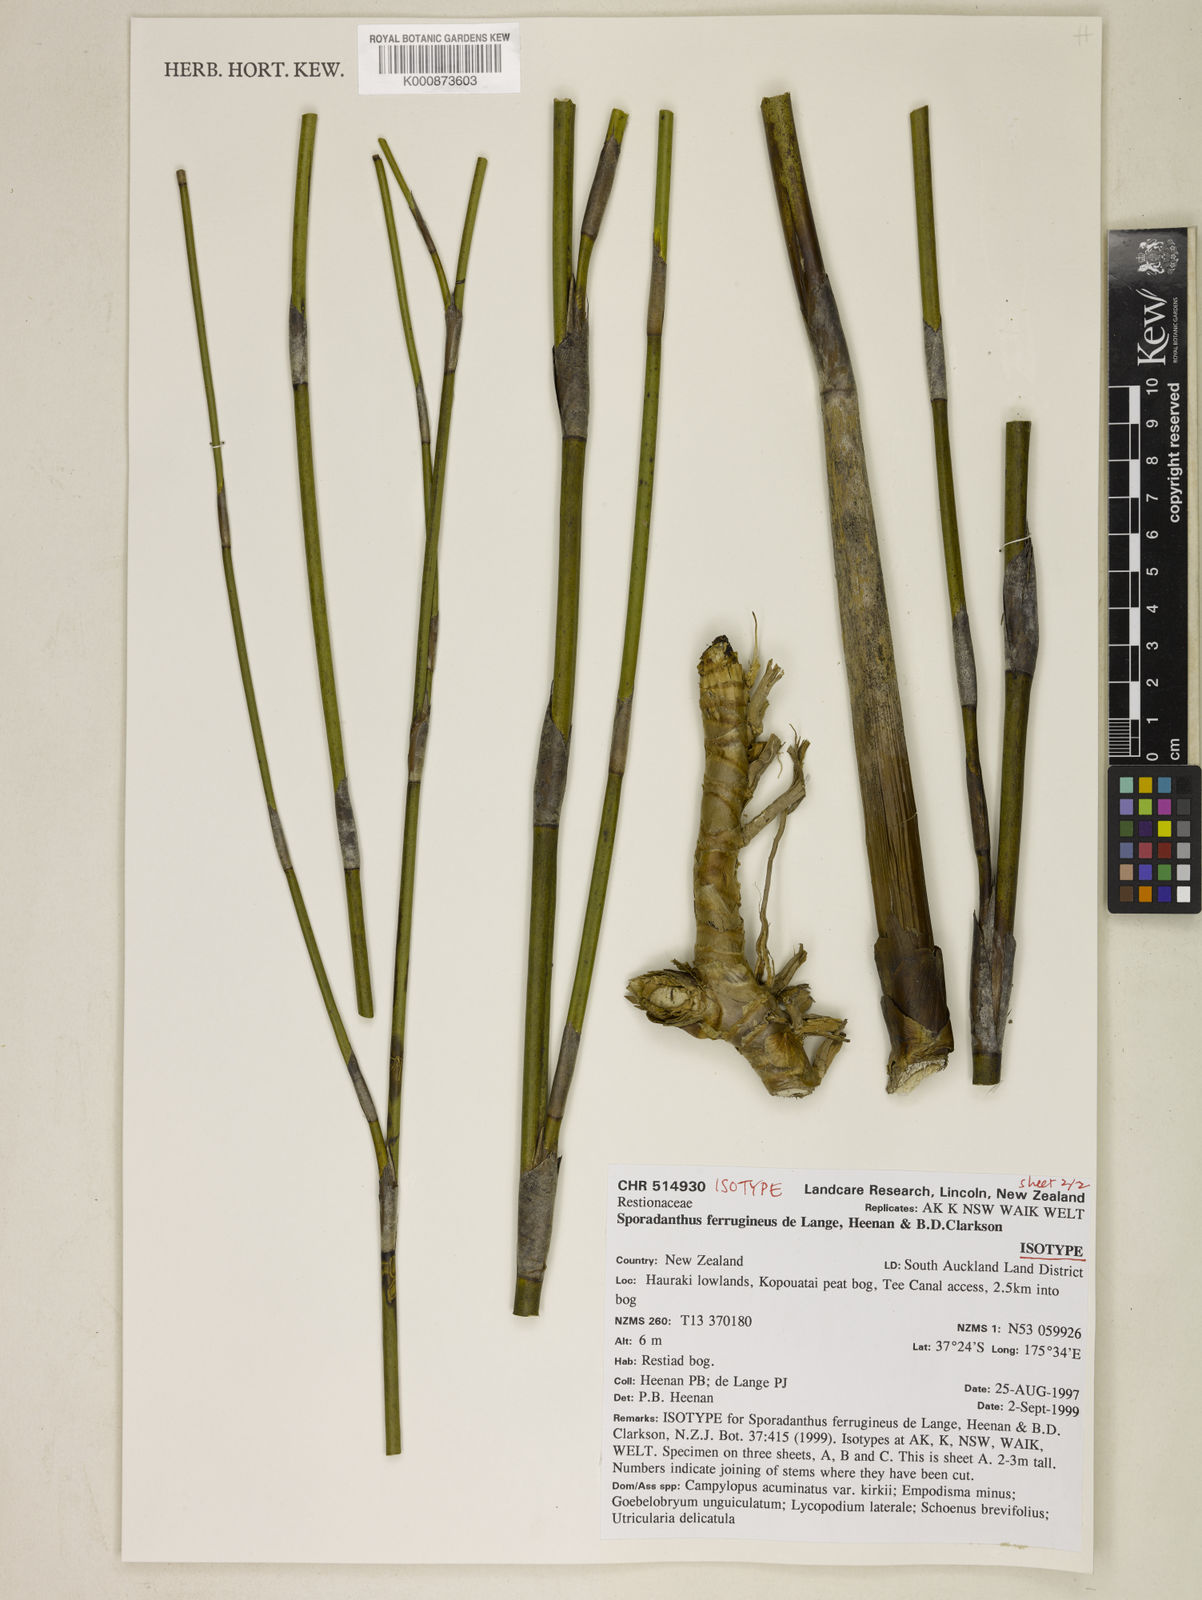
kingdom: Plantae
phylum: Tracheophyta
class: Liliopsida
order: Poales
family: Restionaceae
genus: Sporadanthus
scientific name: Sporadanthus ferrugineus
